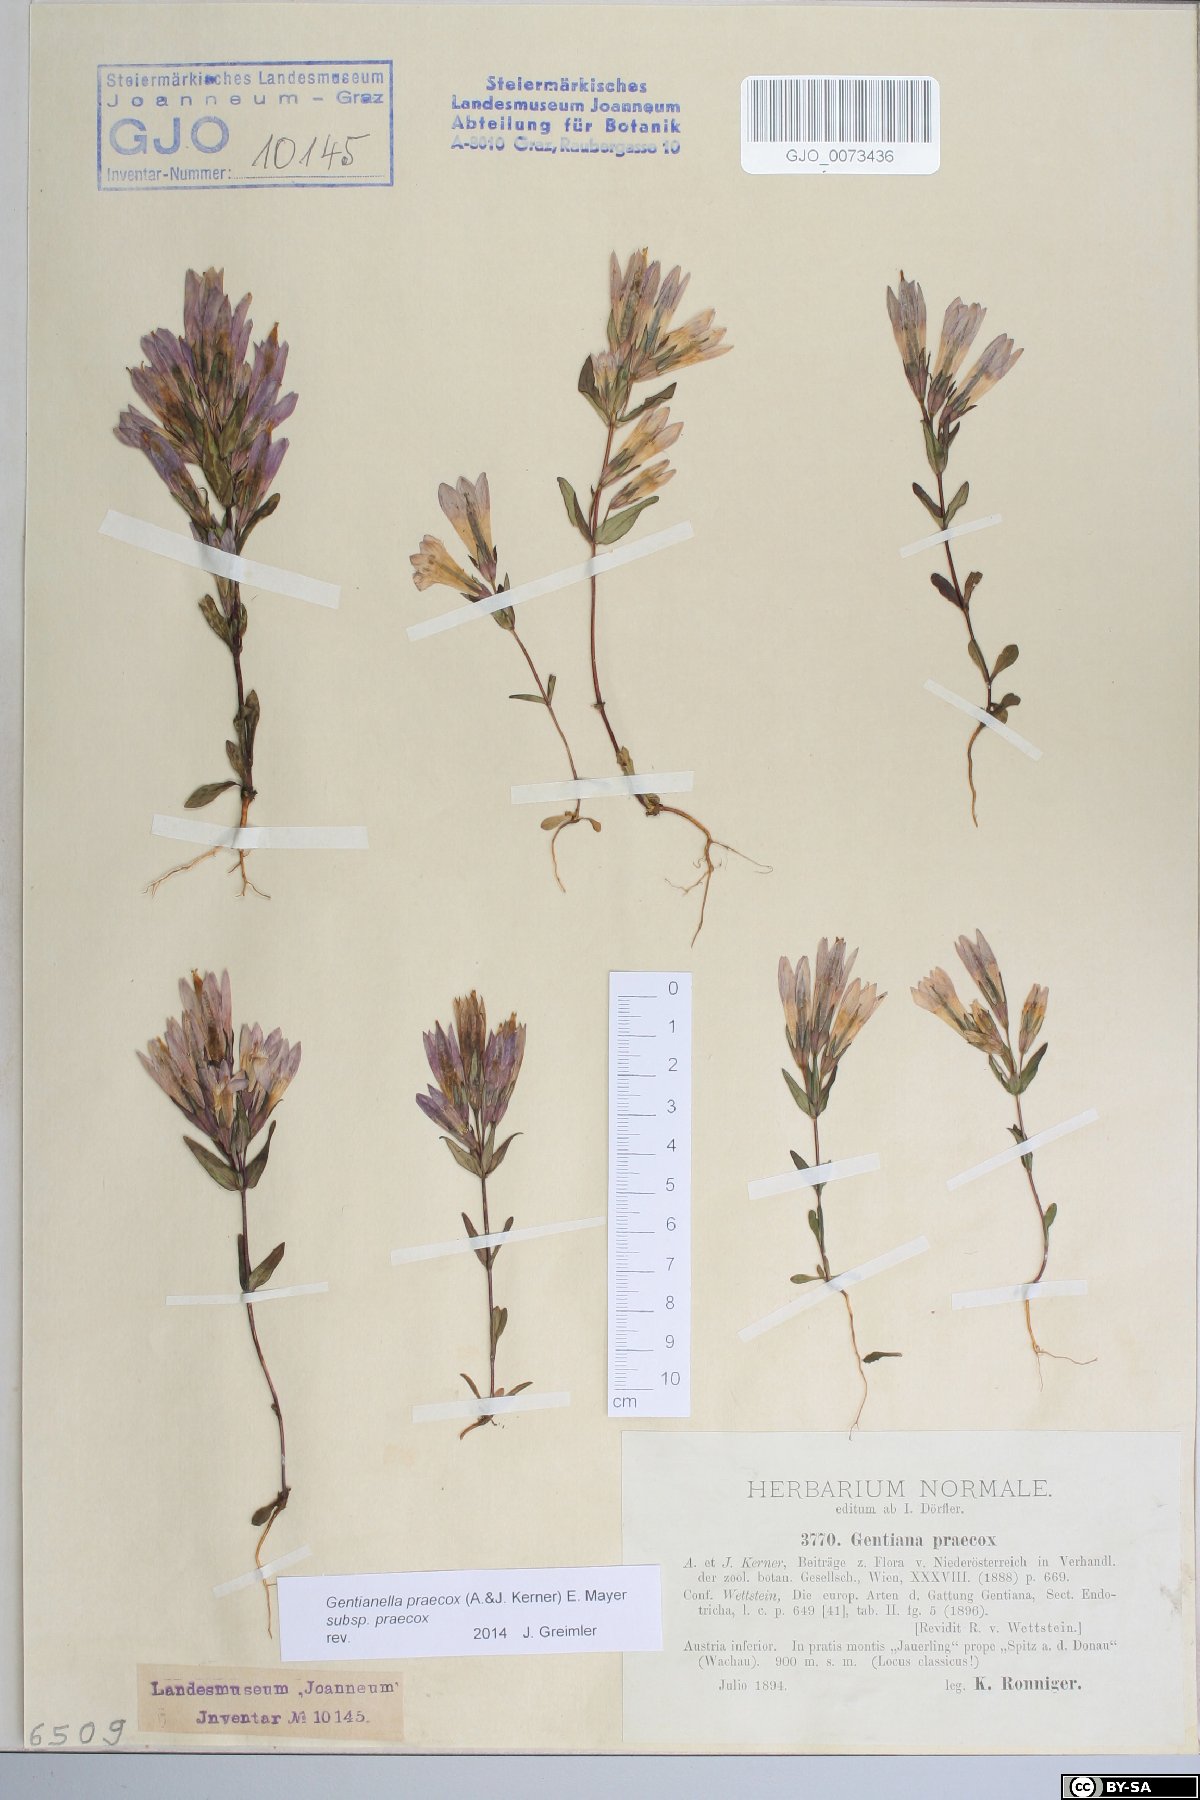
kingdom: Plantae
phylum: Tracheophyta
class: Magnoliopsida
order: Gentianales
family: Gentianaceae
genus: Gentianella
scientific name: Gentianella praecox
